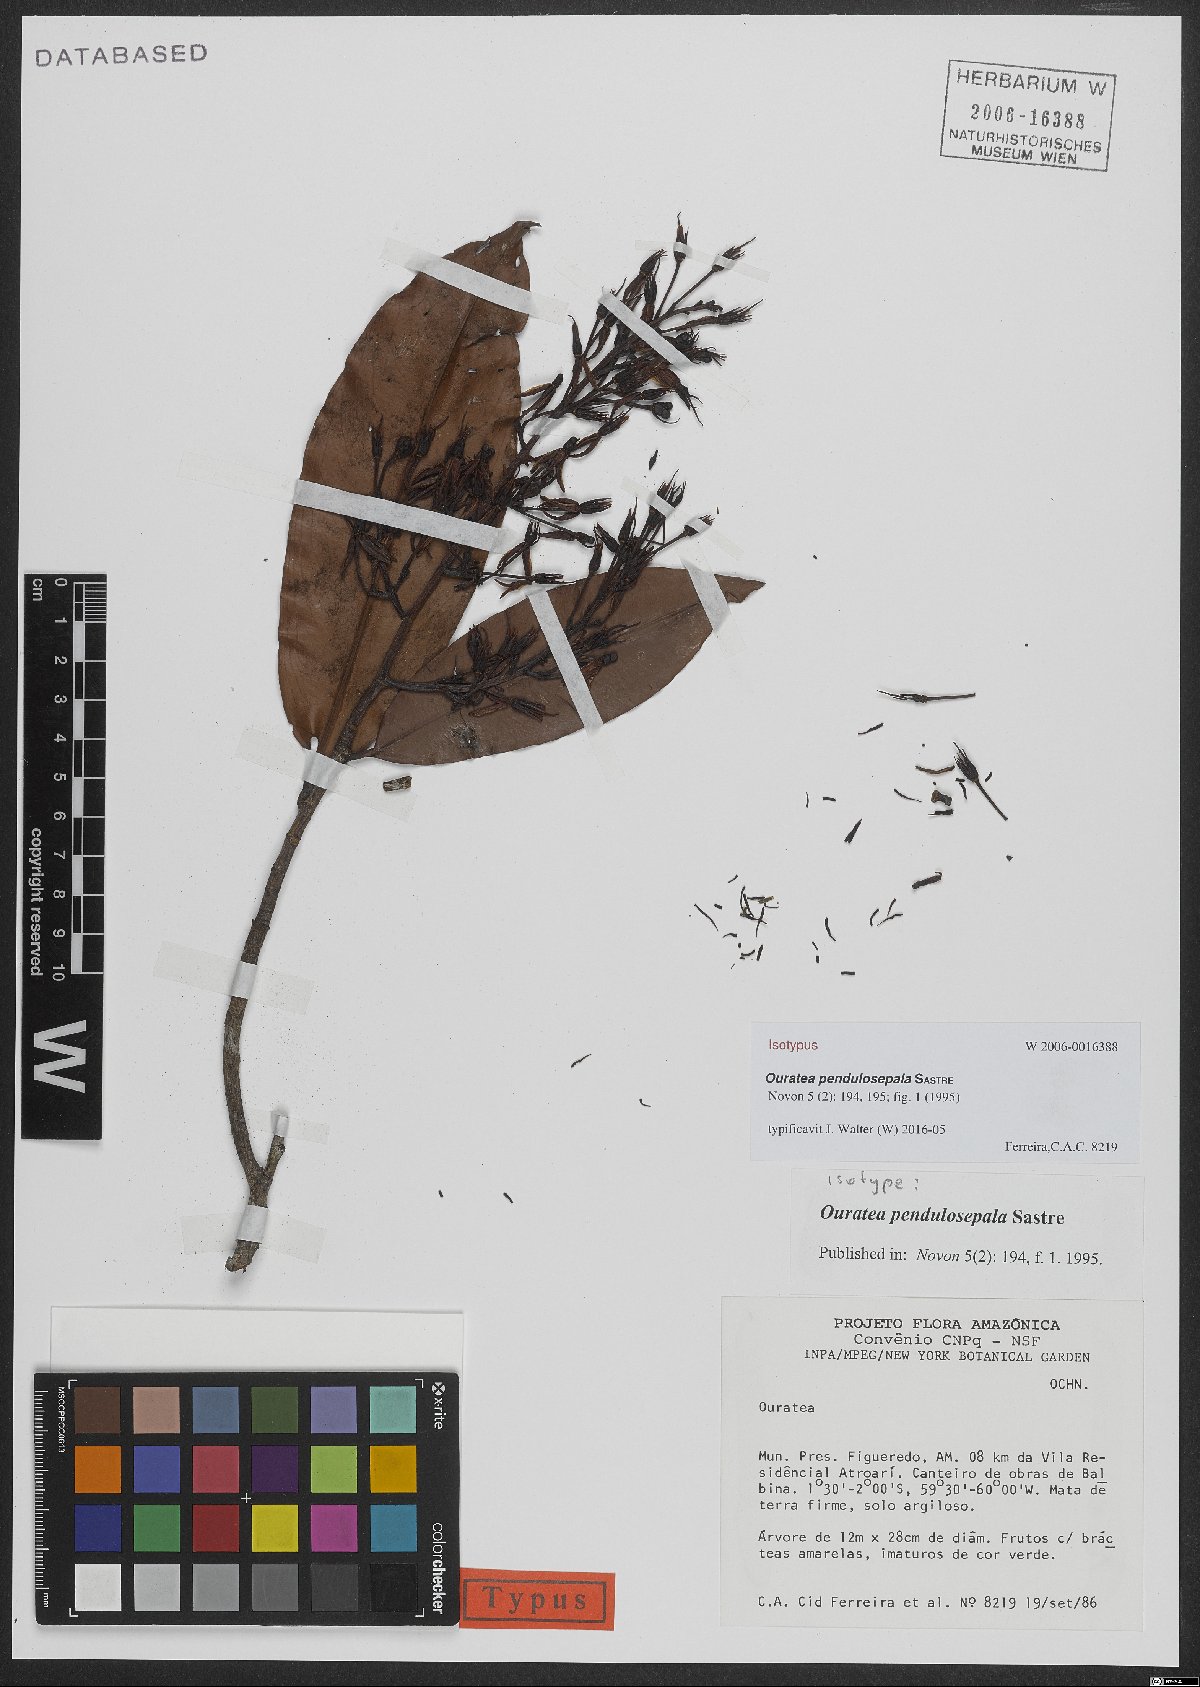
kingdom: Plantae
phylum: Tracheophyta
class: Magnoliopsida
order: Malpighiales
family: Ochnaceae
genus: Ouratea
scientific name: Ouratea pendulosepala
